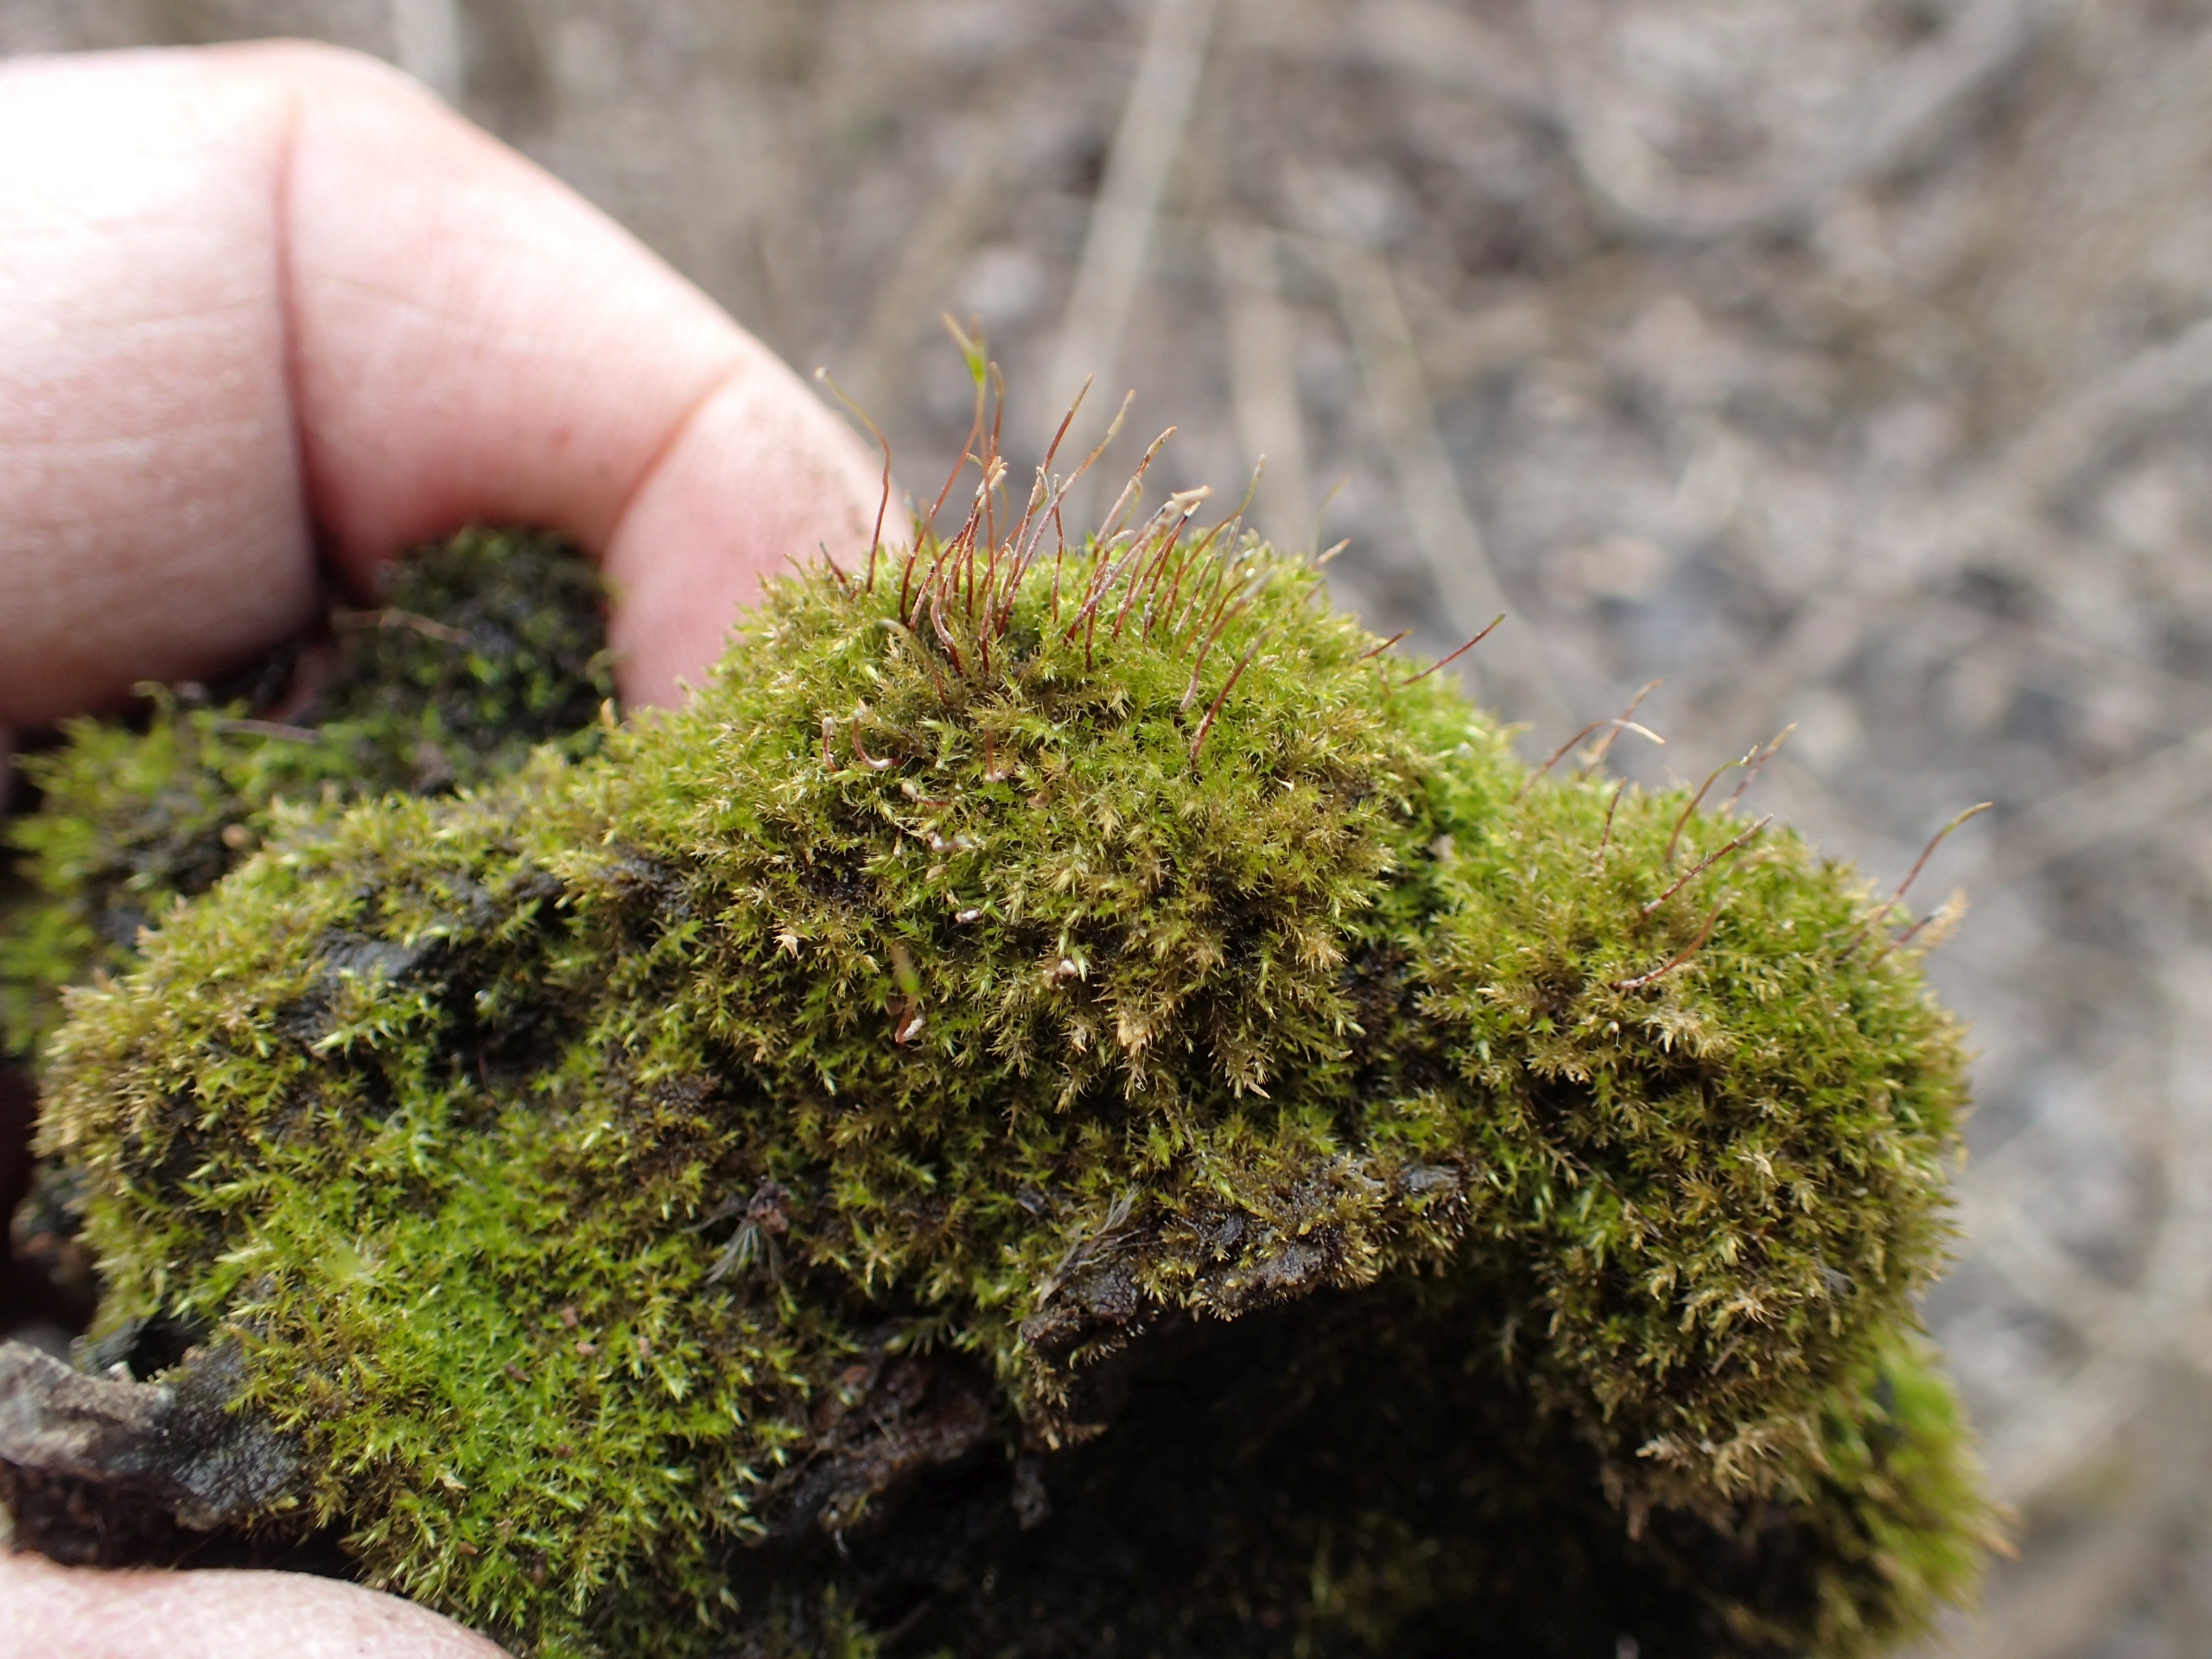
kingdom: Plantae
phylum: Bryophyta
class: Bryopsida
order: Hypnales
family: Amblystegiaceae
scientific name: Amblystegiaceae
